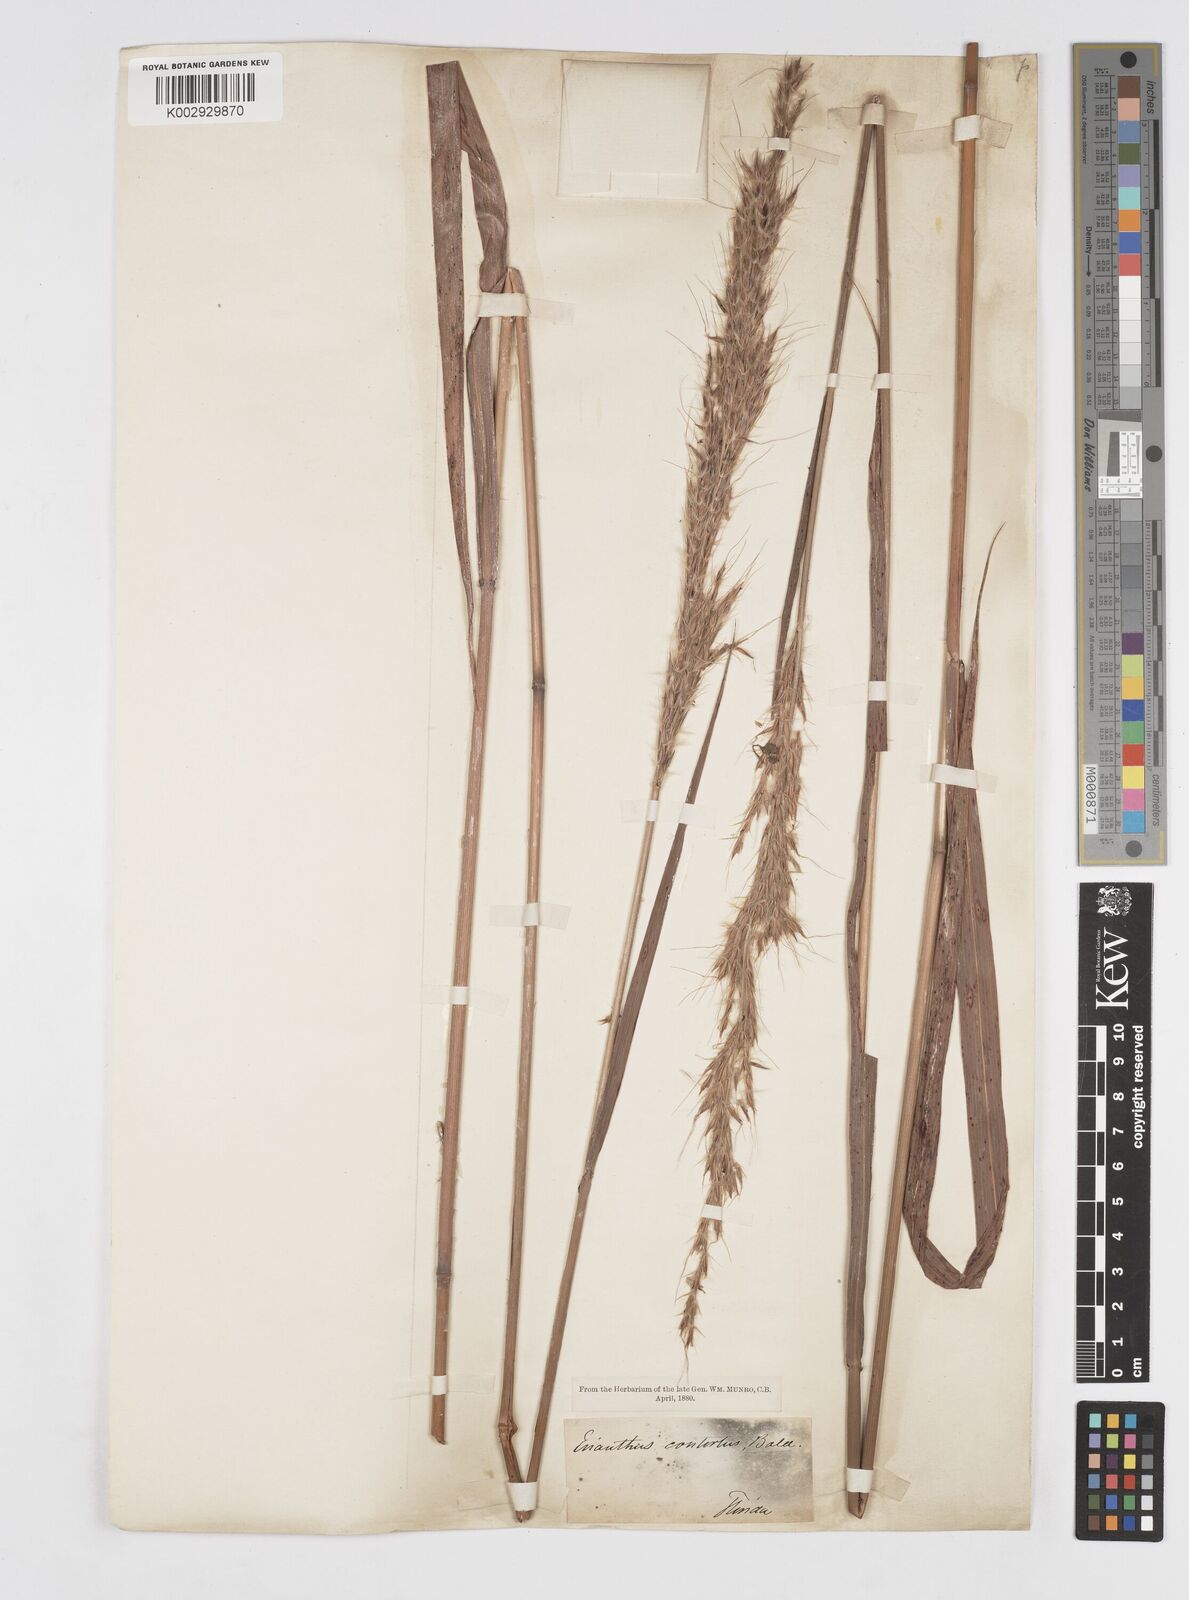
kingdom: Plantae
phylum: Tracheophyta
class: Liliopsida
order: Poales
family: Poaceae
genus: Erianthus
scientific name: Erianthus contortus
